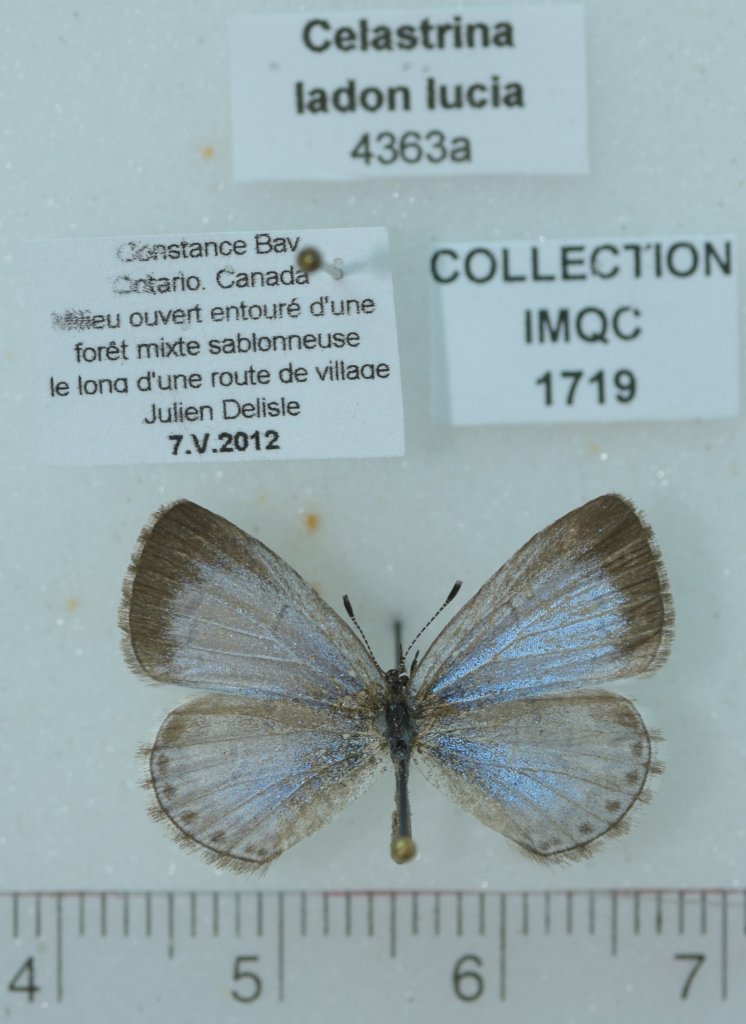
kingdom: Animalia
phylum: Arthropoda
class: Insecta
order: Lepidoptera
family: Lycaenidae
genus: Celastrina
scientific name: Celastrina lucia
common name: Northern Spring Azure
